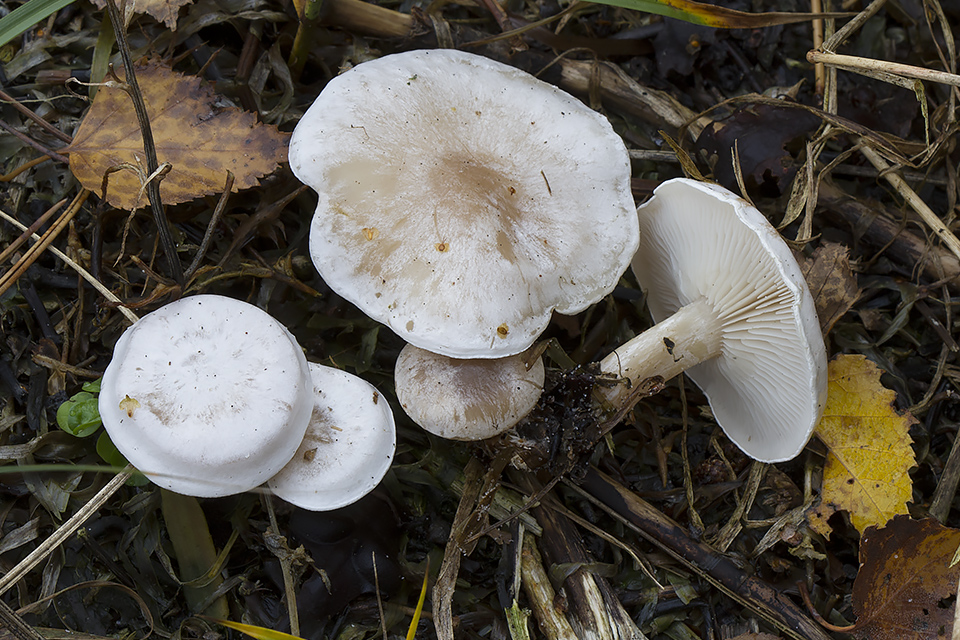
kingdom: Fungi
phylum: Basidiomycota
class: Agaricomycetes
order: Agaricales
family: Tricholomataceae
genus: Clitocybe
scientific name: Clitocybe rivulosa
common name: eng-tragthat
